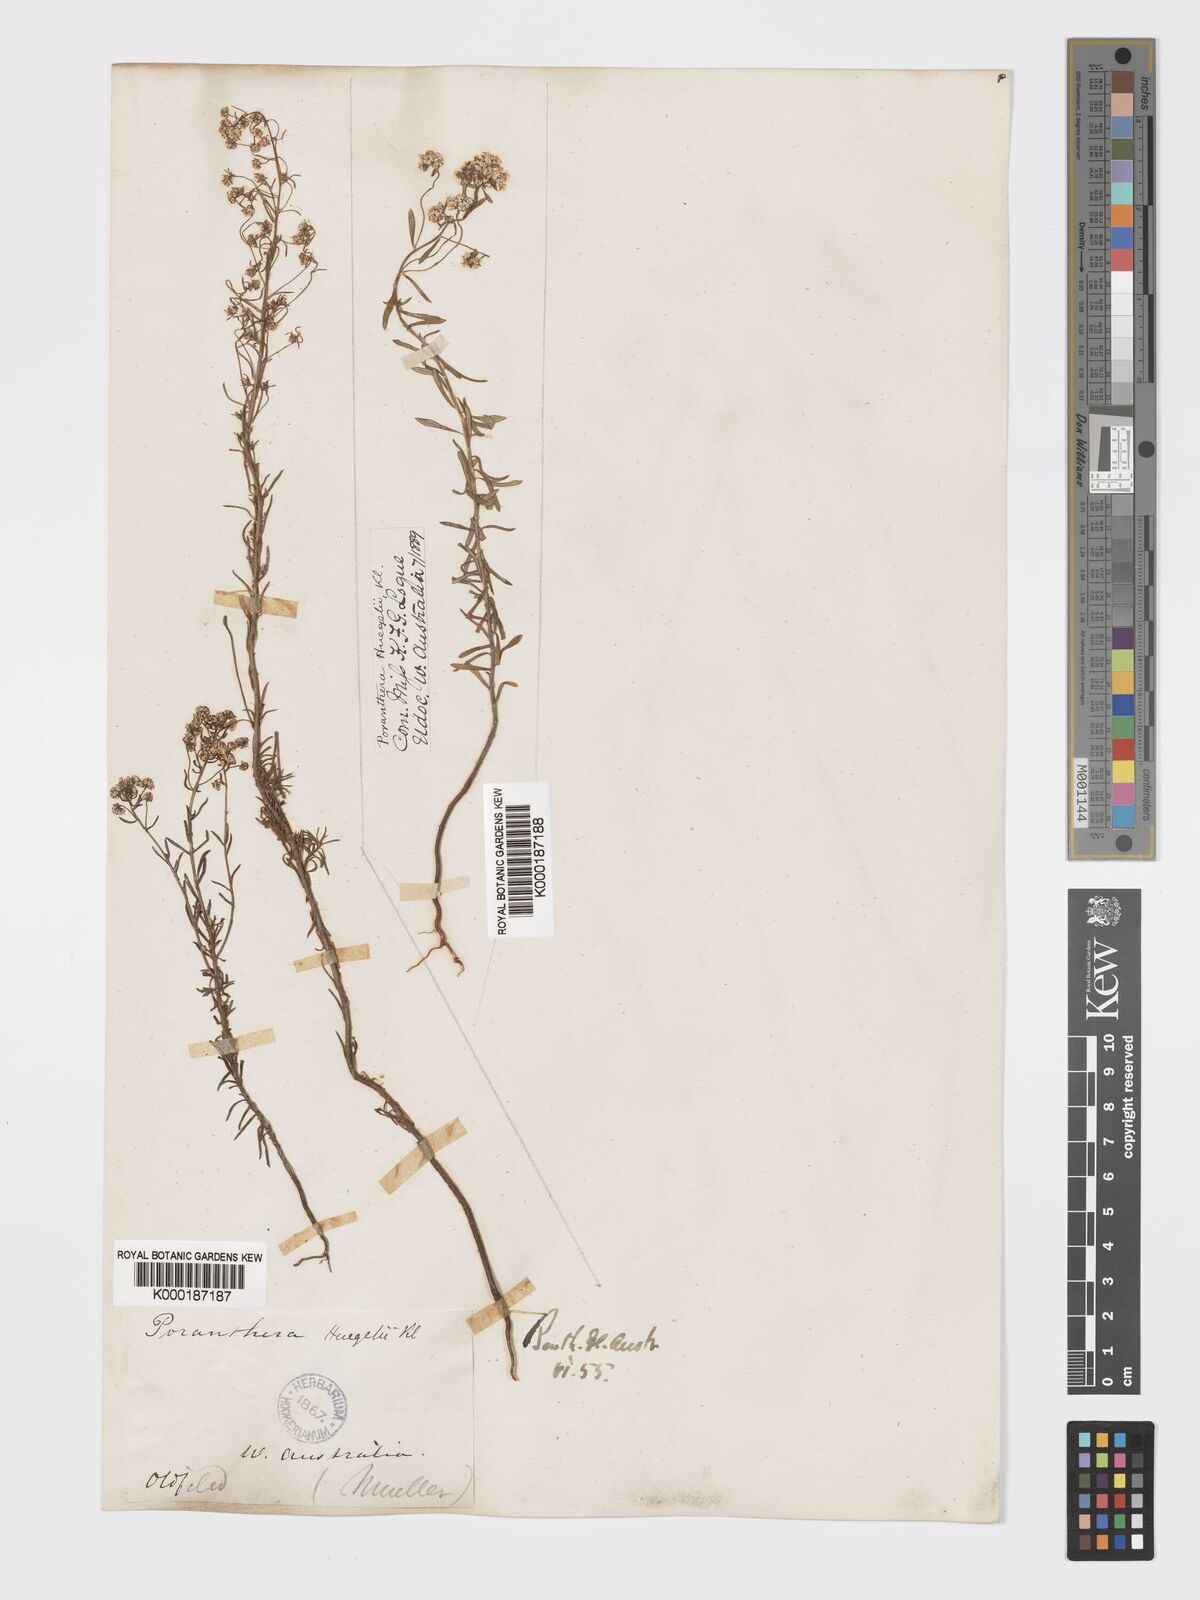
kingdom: Plantae
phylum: Tracheophyta
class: Magnoliopsida
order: Malpighiales
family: Phyllanthaceae
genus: Poranthera
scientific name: Poranthera huegelii
